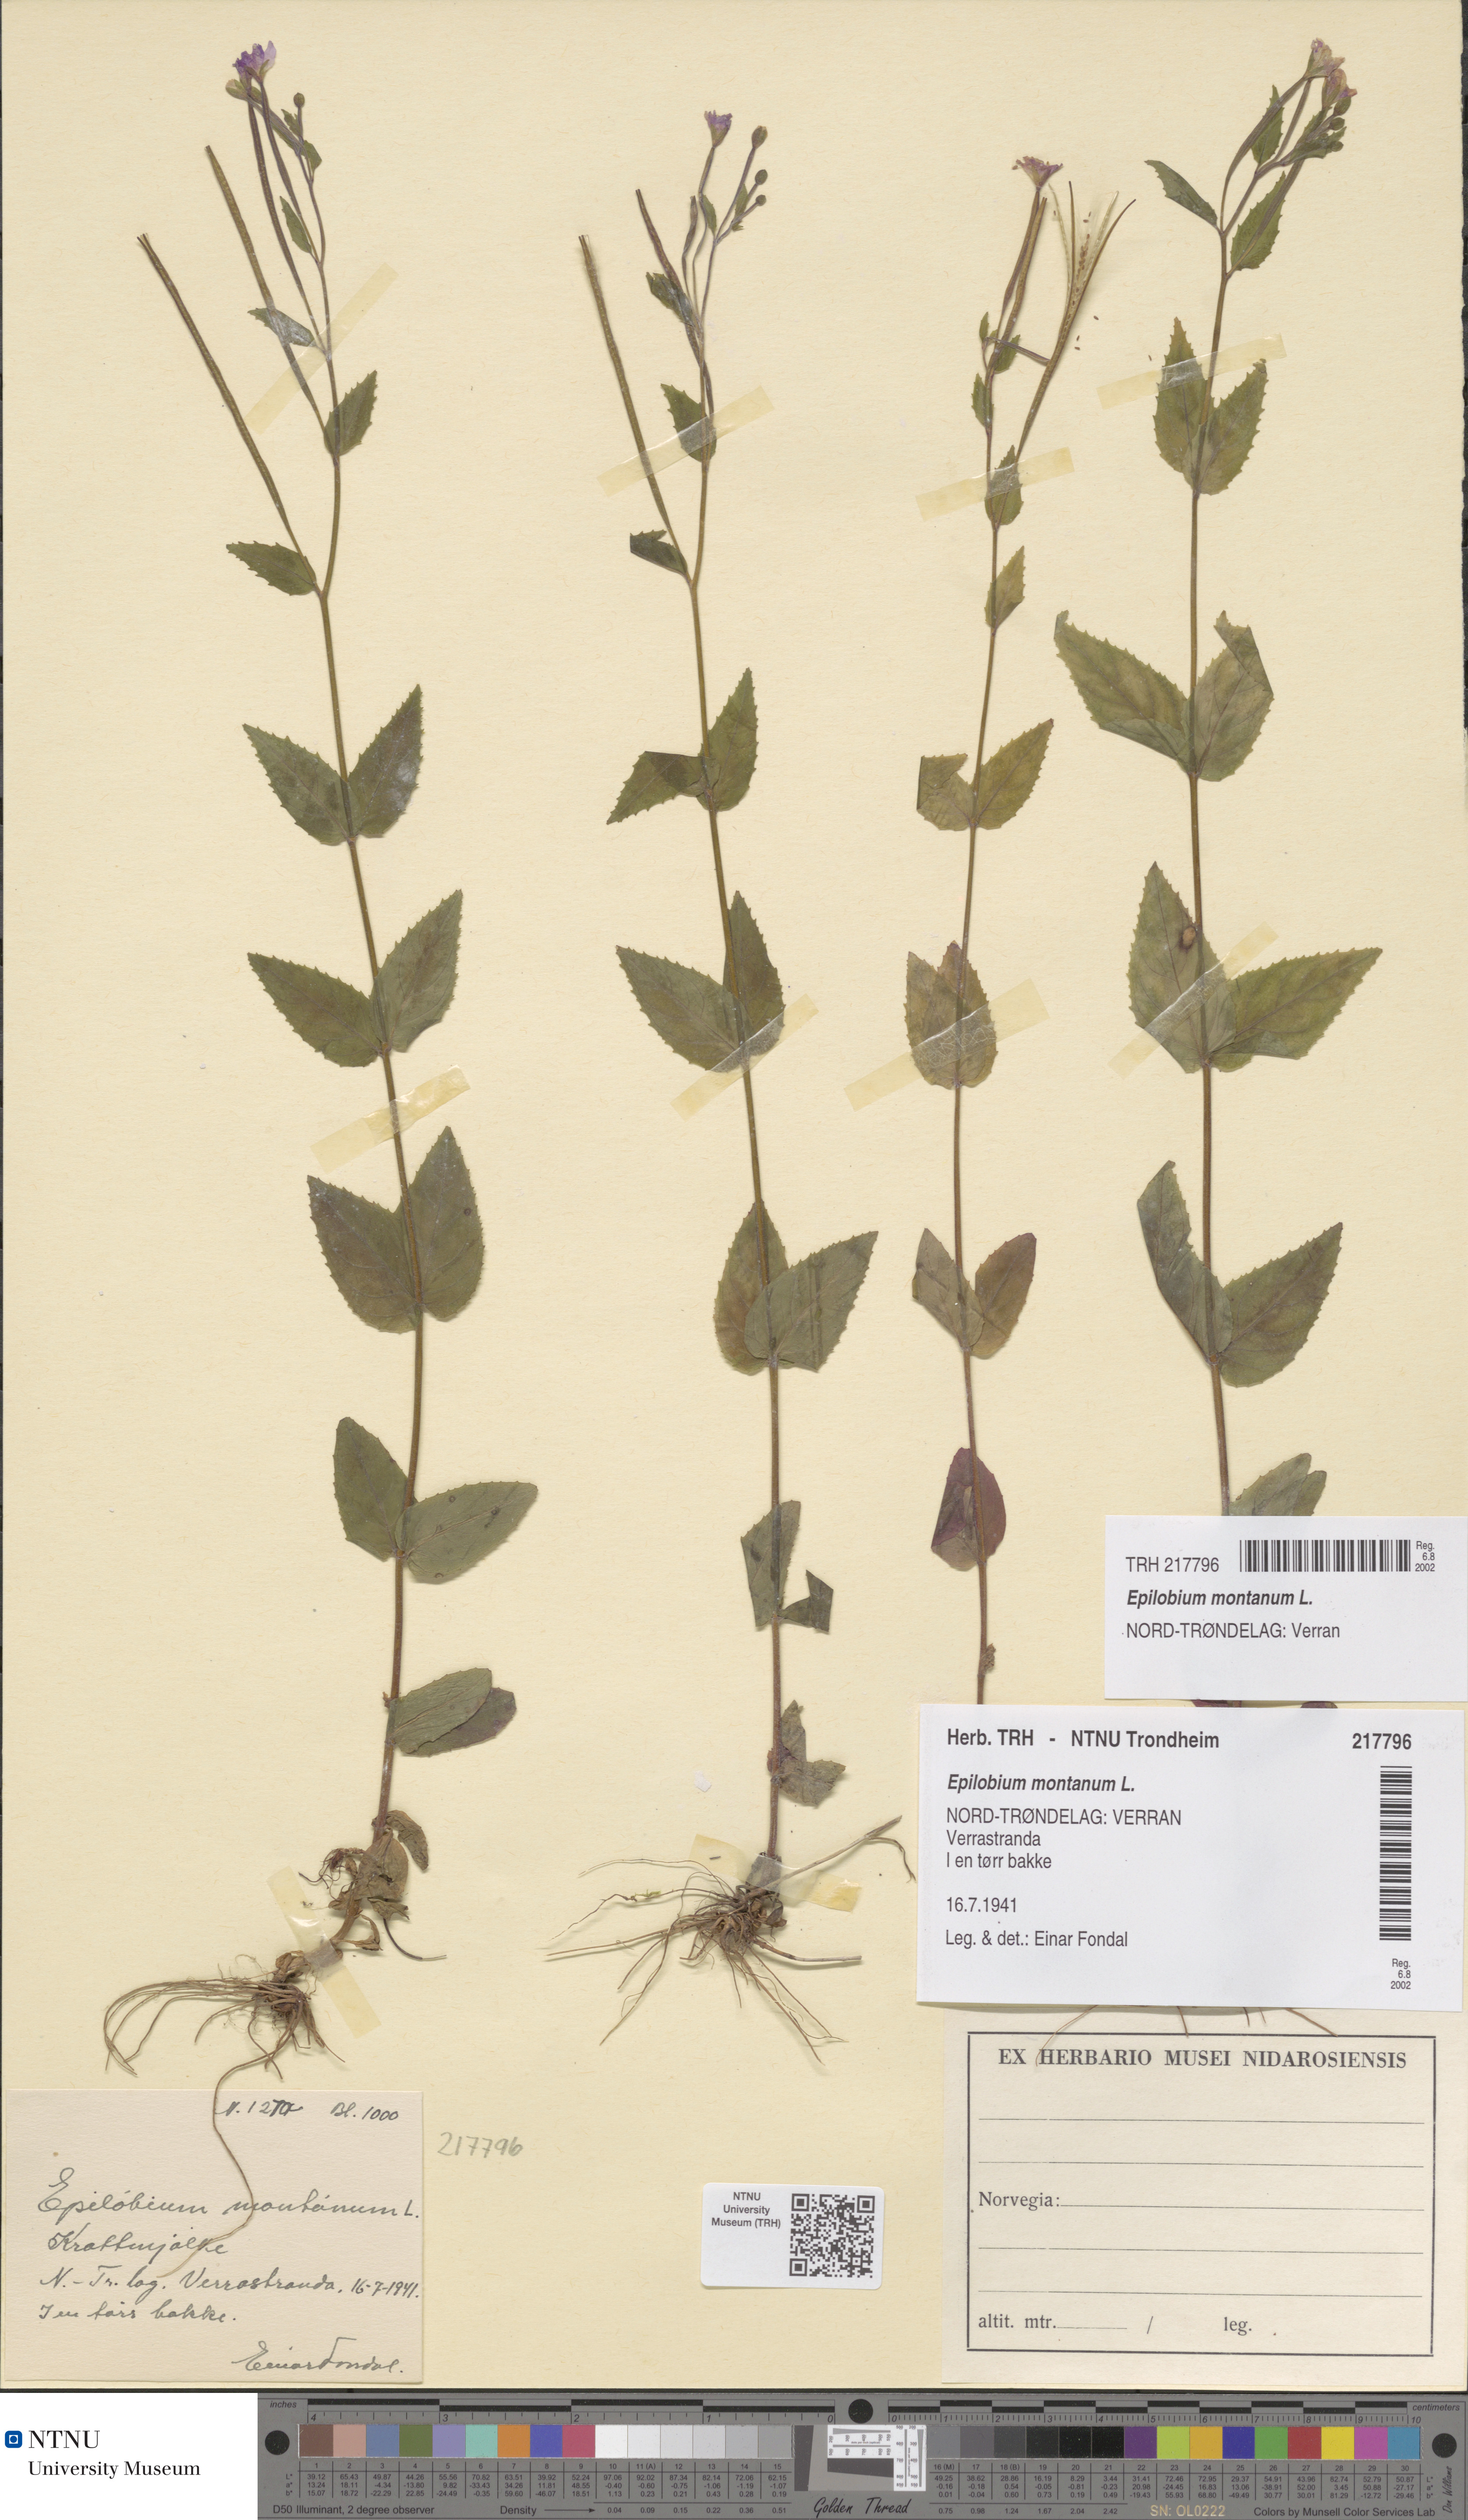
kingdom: Plantae
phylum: Tracheophyta
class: Magnoliopsida
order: Myrtales
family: Onagraceae
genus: Epilobium
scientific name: Epilobium montanum
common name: Broad-leaved willowherb
